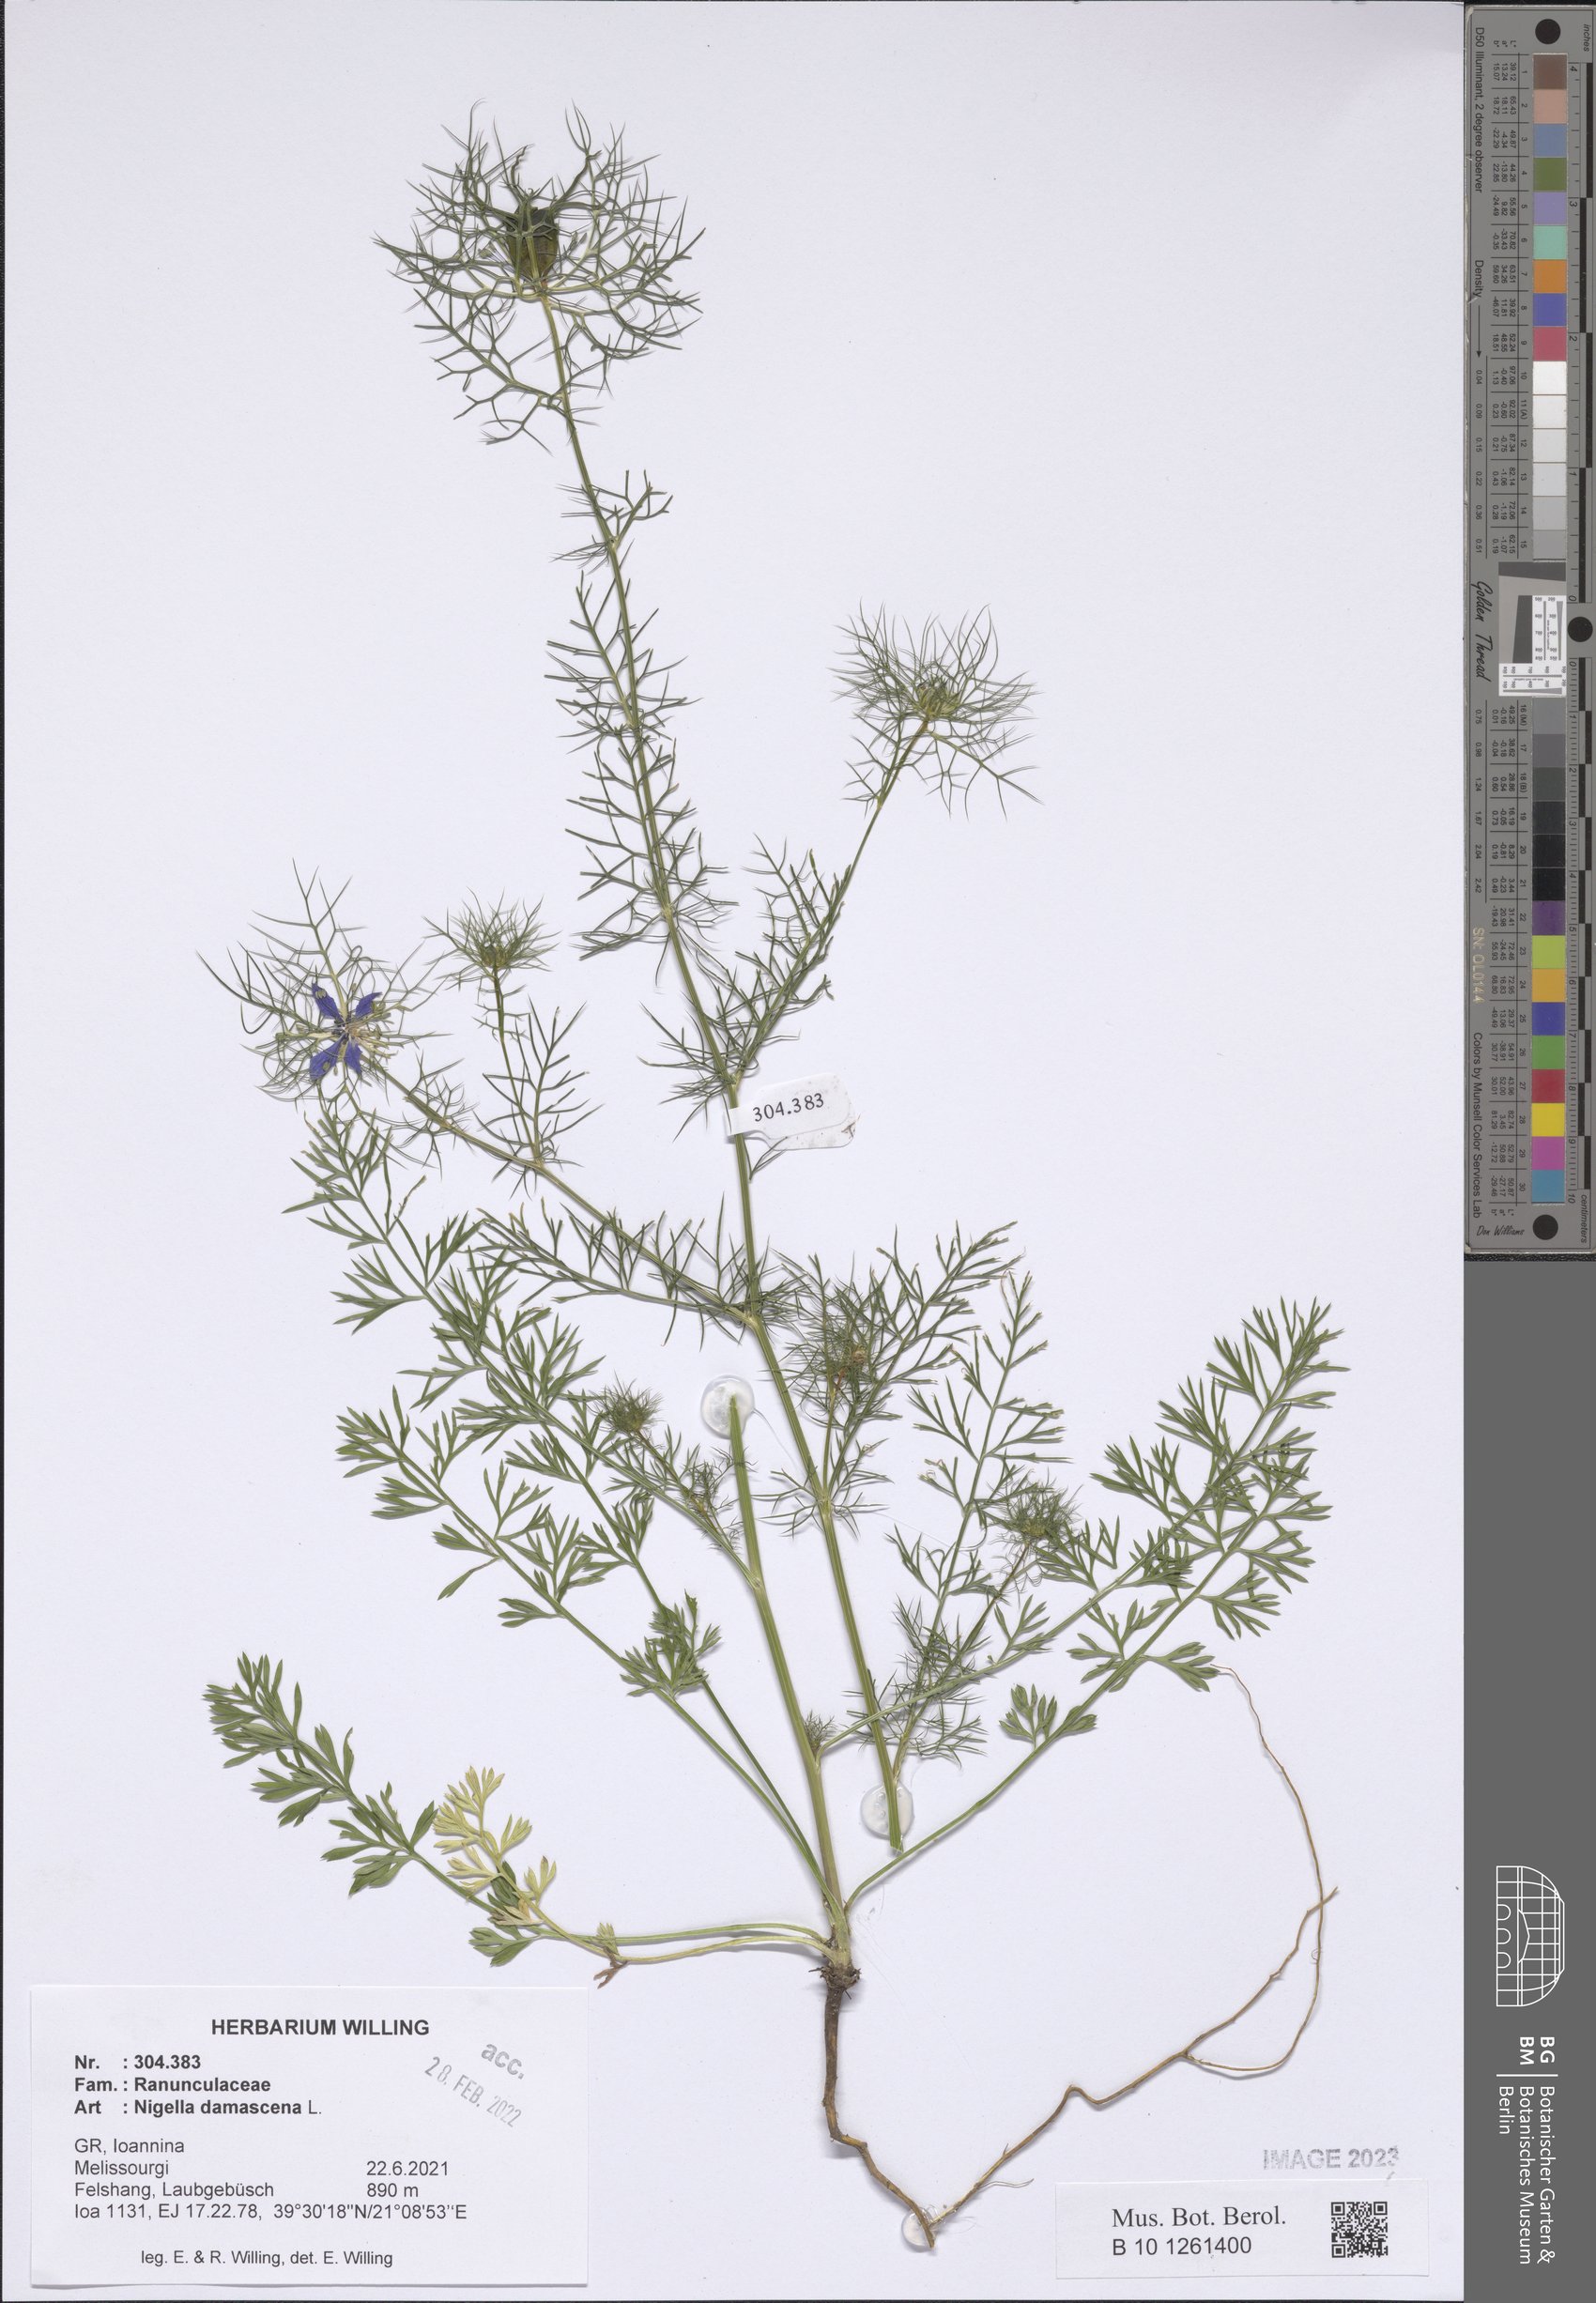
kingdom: Plantae
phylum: Tracheophyta
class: Magnoliopsida
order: Ranunculales
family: Ranunculaceae
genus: Nigella
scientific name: Nigella damascena
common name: Love-in-a-mist
